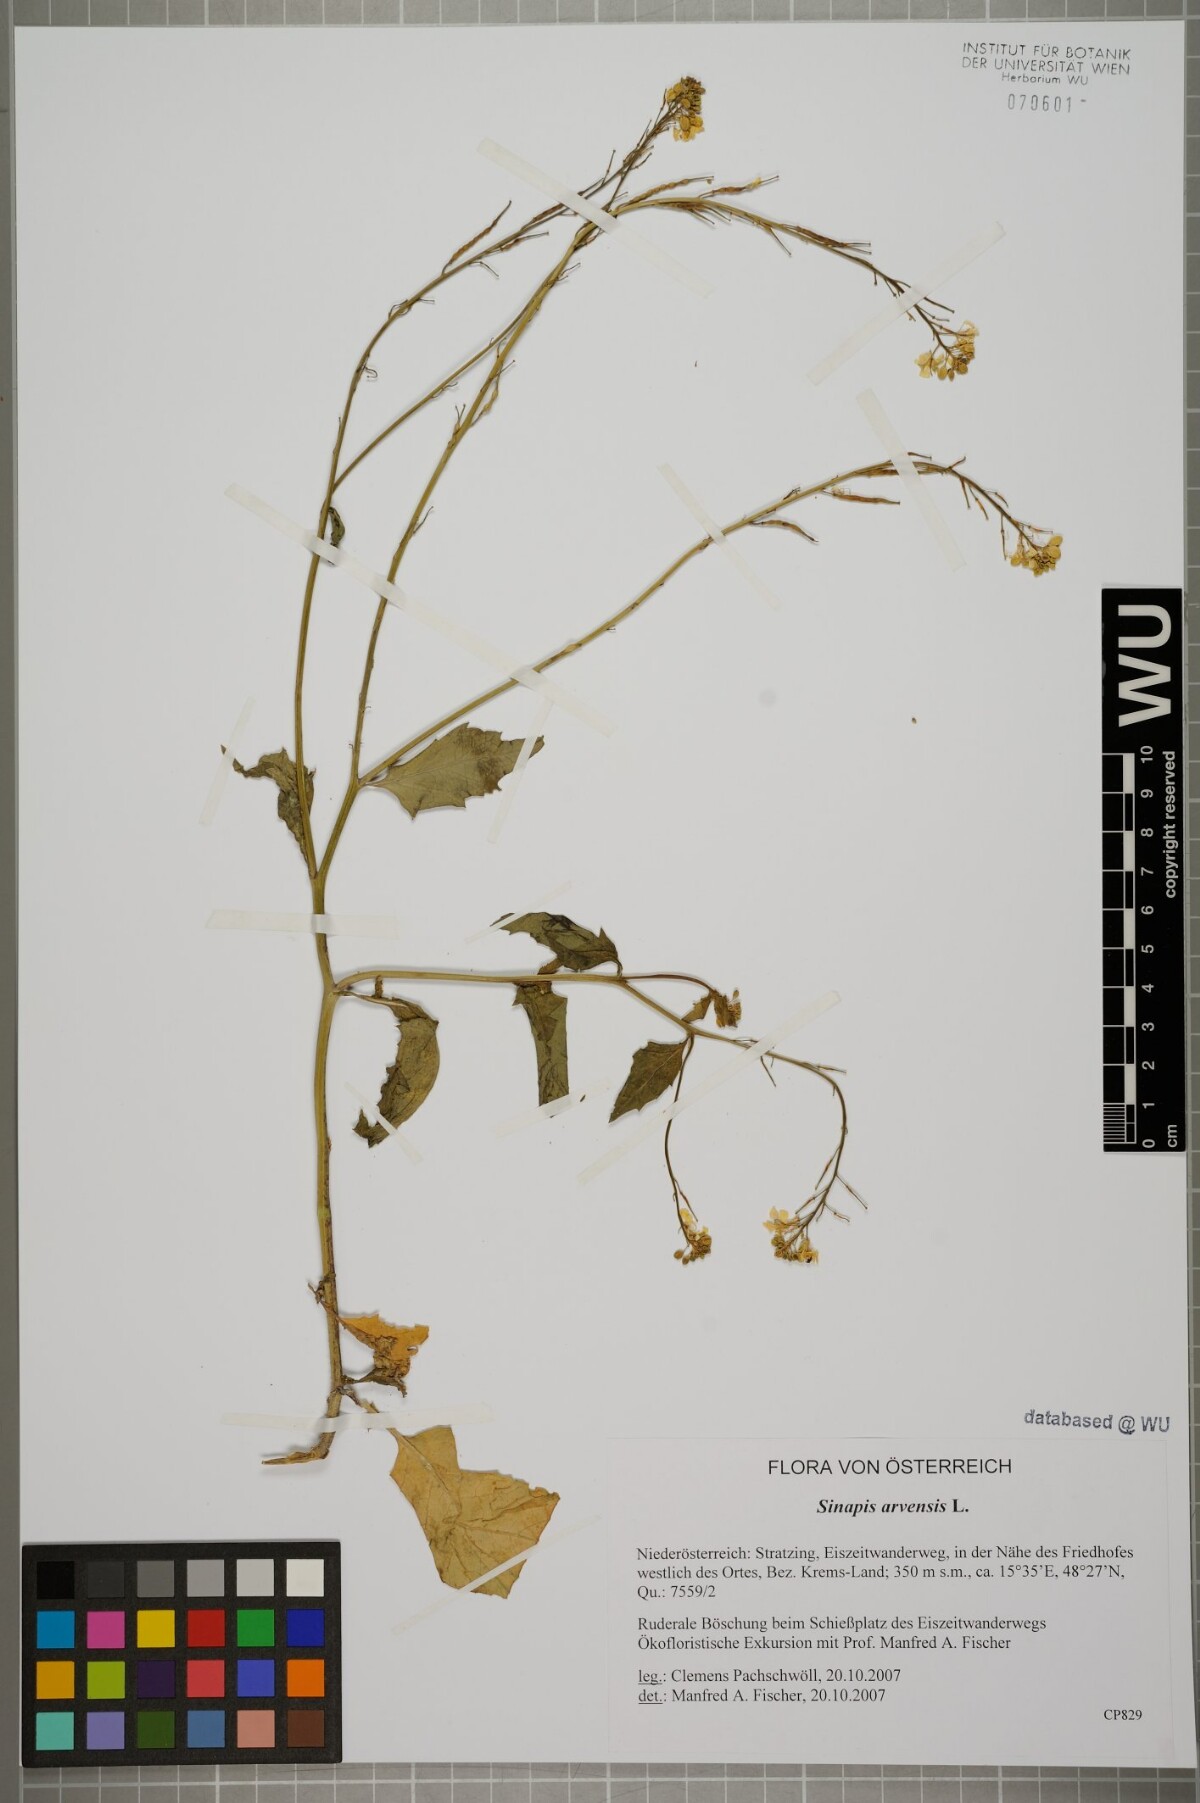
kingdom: Plantae
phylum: Tracheophyta
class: Magnoliopsida
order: Brassicales
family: Brassicaceae
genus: Sinapis
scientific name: Sinapis arvensis
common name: Charlock
